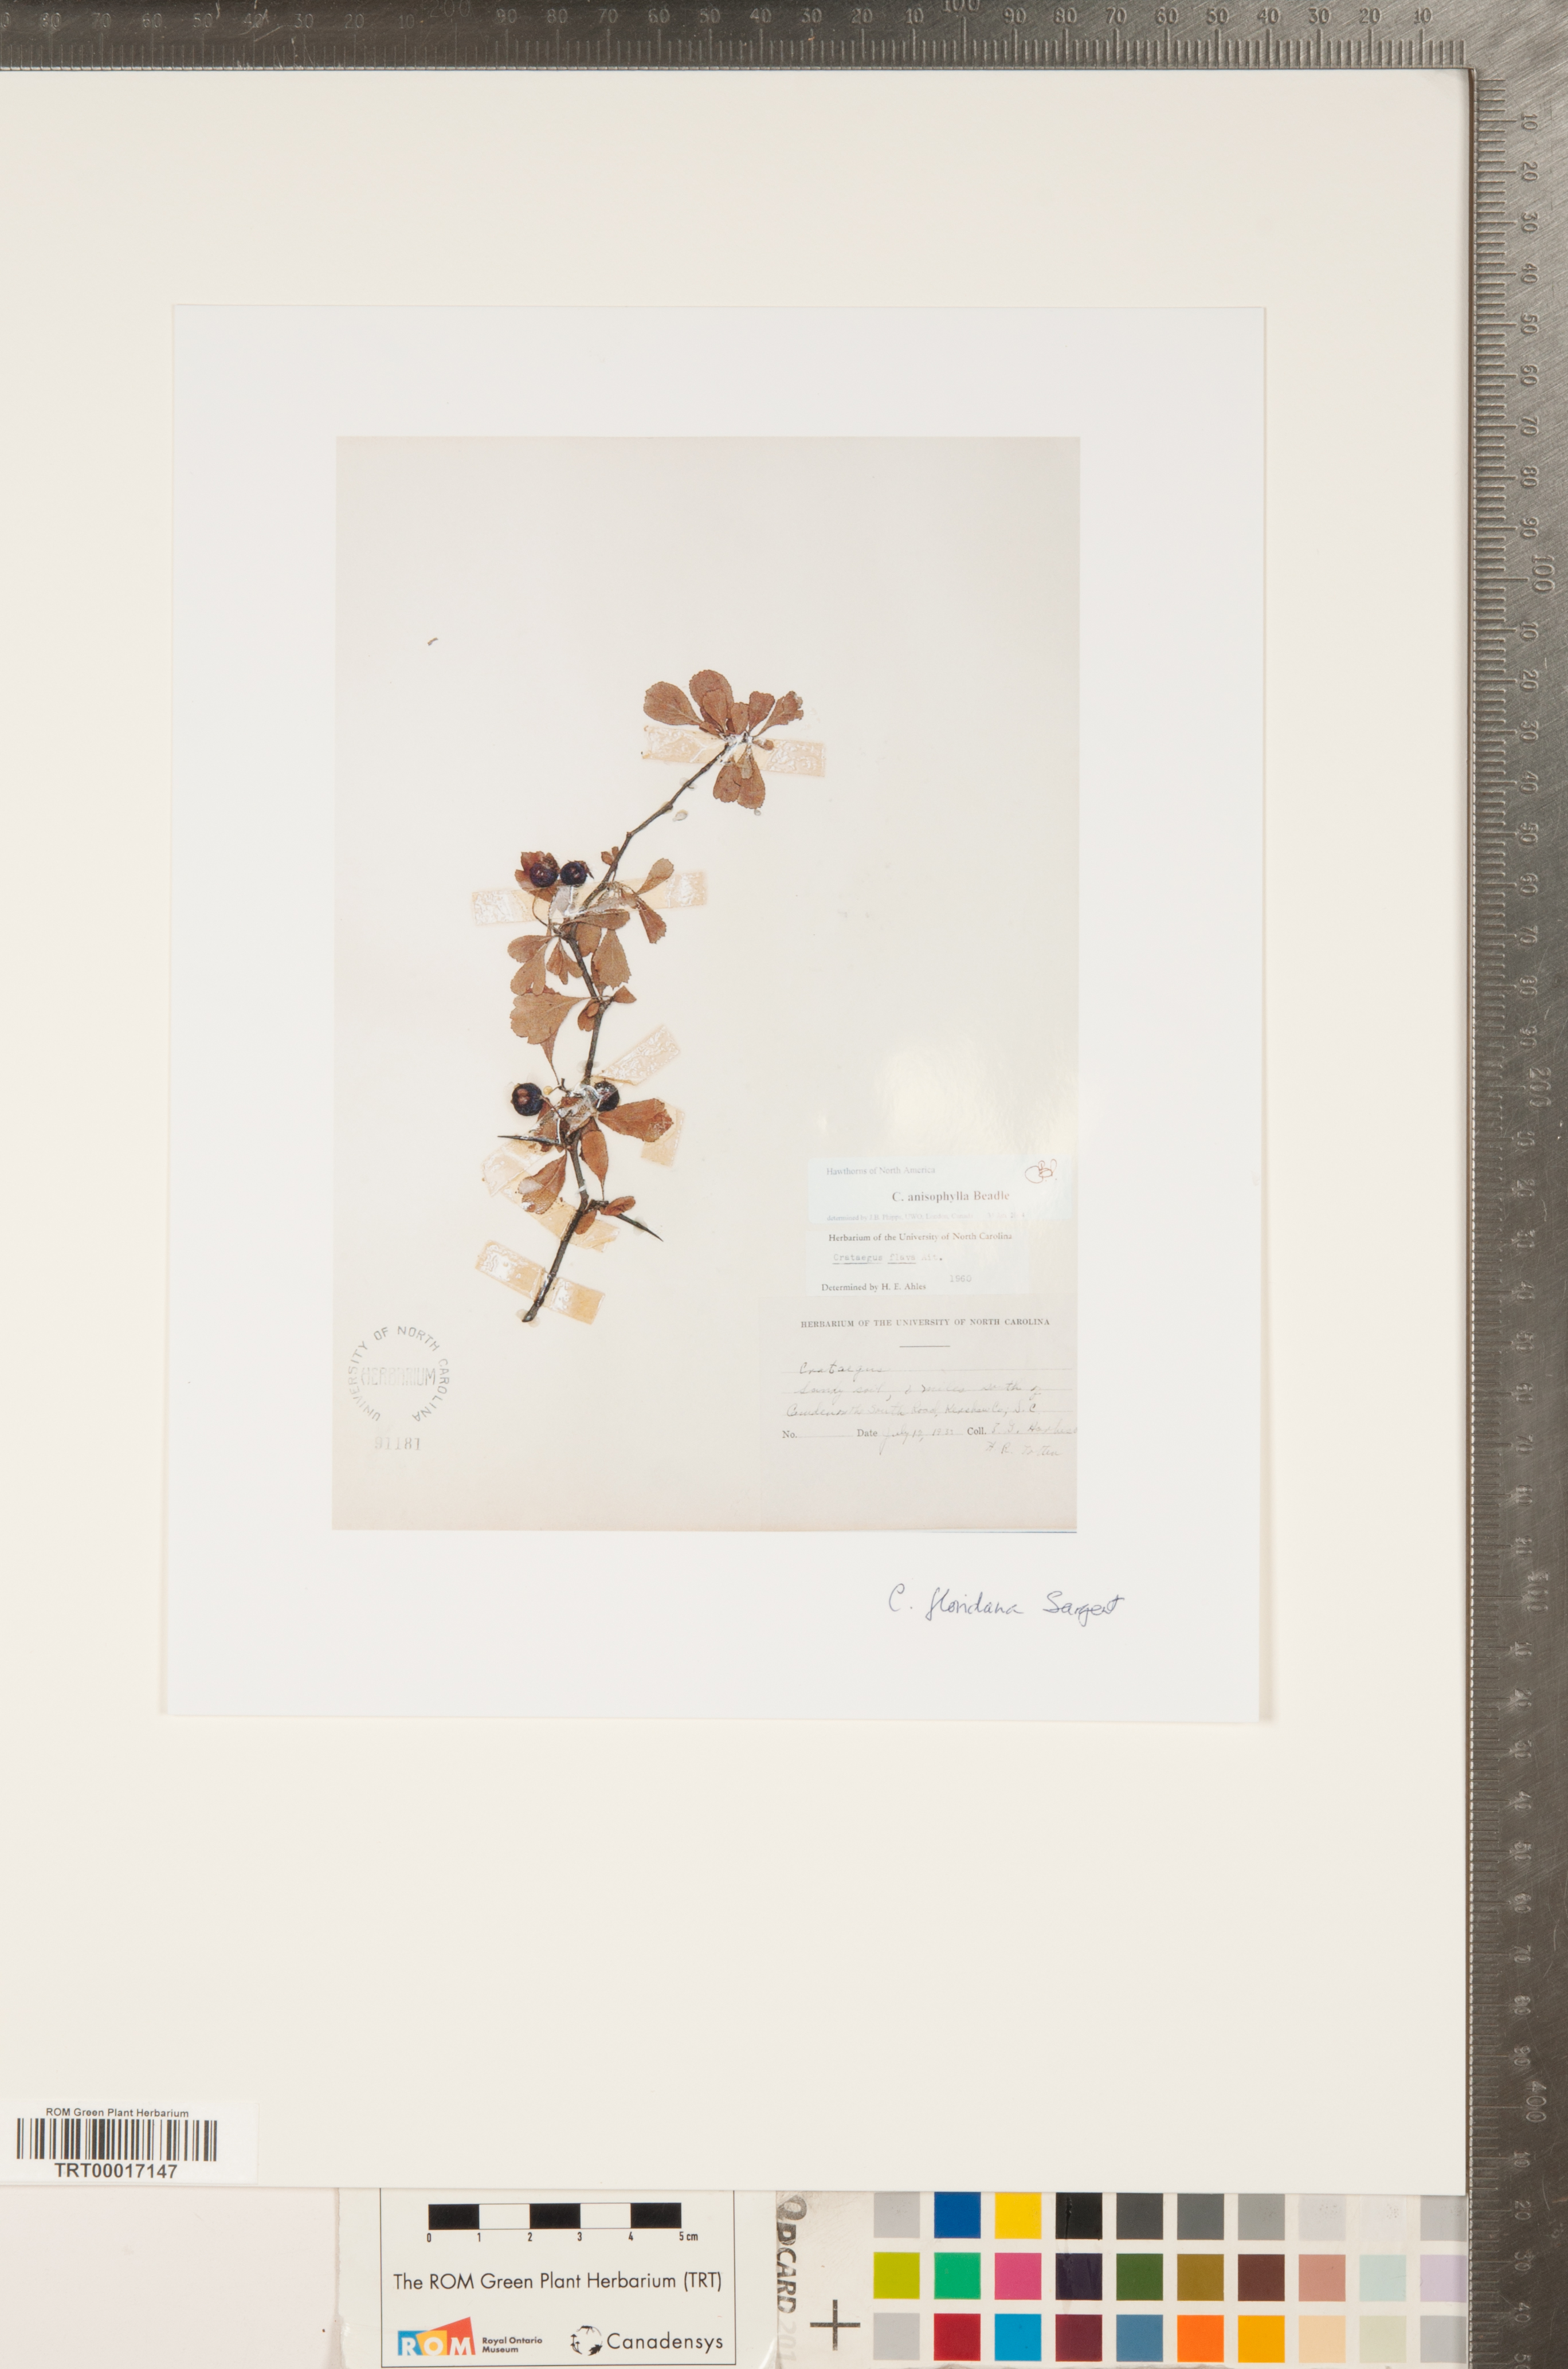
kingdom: Plantae
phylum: Tracheophyta
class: Magnoliopsida
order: Rosales
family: Rosaceae
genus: Crataegus
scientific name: Crataegus floridana
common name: Florida haw
